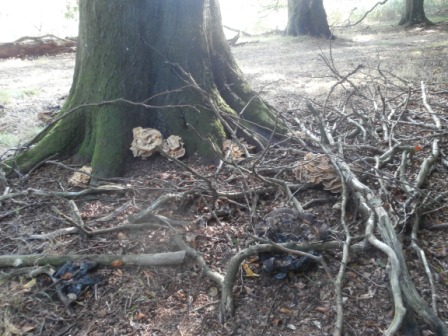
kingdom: Fungi
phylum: Basidiomycota
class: Agaricomycetes
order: Polyporales
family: Meripilaceae
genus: Meripilus
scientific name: Meripilus giganteus
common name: kæmpeporesvamp
